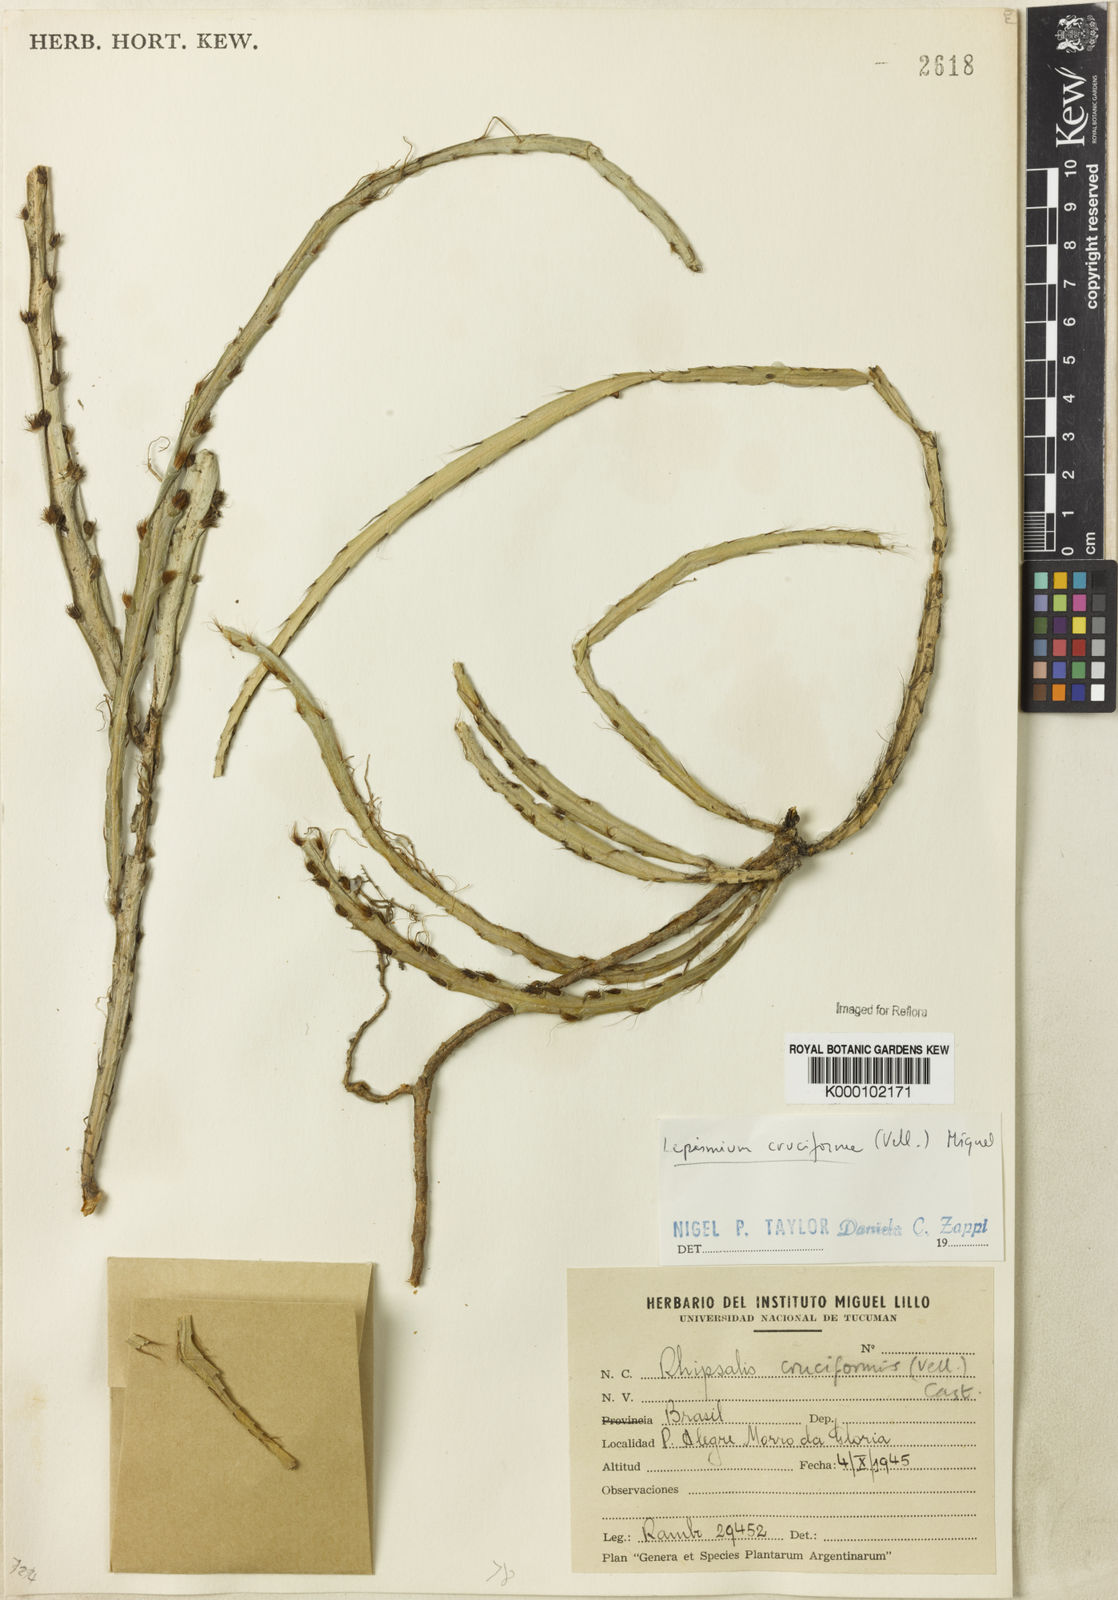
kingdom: Plantae
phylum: Tracheophyta
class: Magnoliopsida
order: Caryophyllales
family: Cactaceae
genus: Lepismium
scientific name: Lepismium cruciforme
